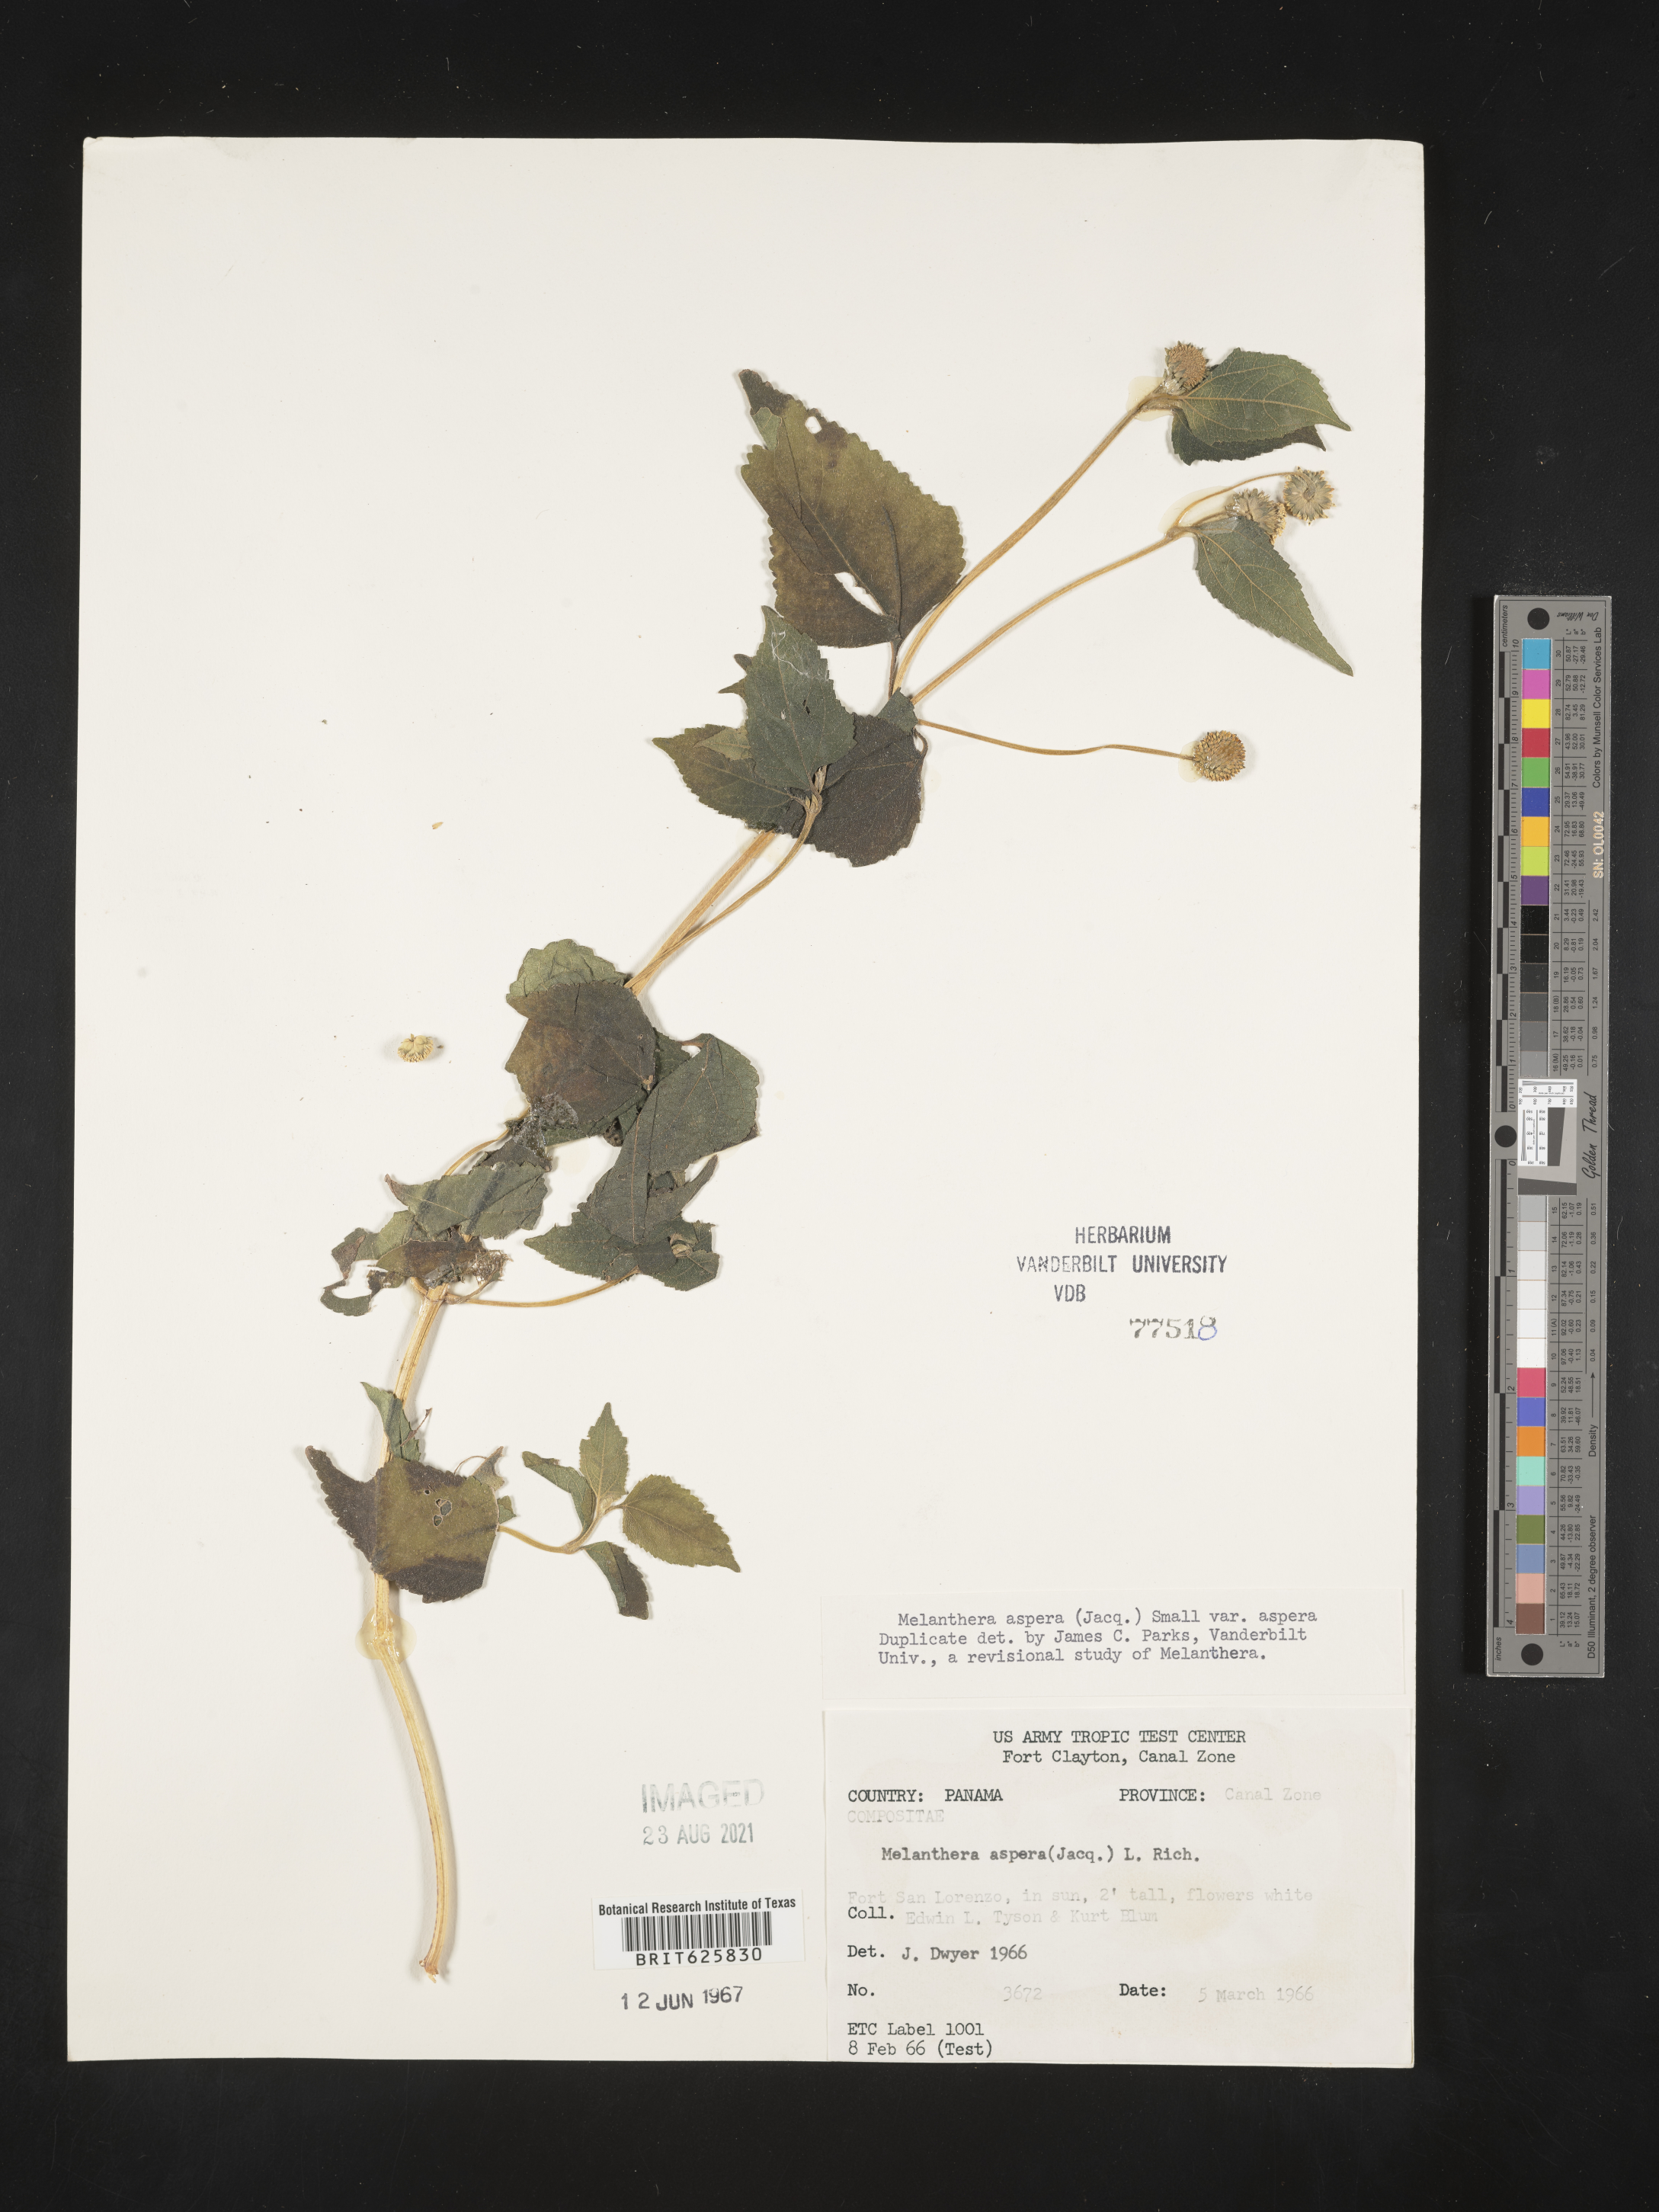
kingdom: Plantae
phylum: Tracheophyta
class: Magnoliopsida
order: Asterales
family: Asteraceae
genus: Melanthera
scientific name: Melanthera nivea
